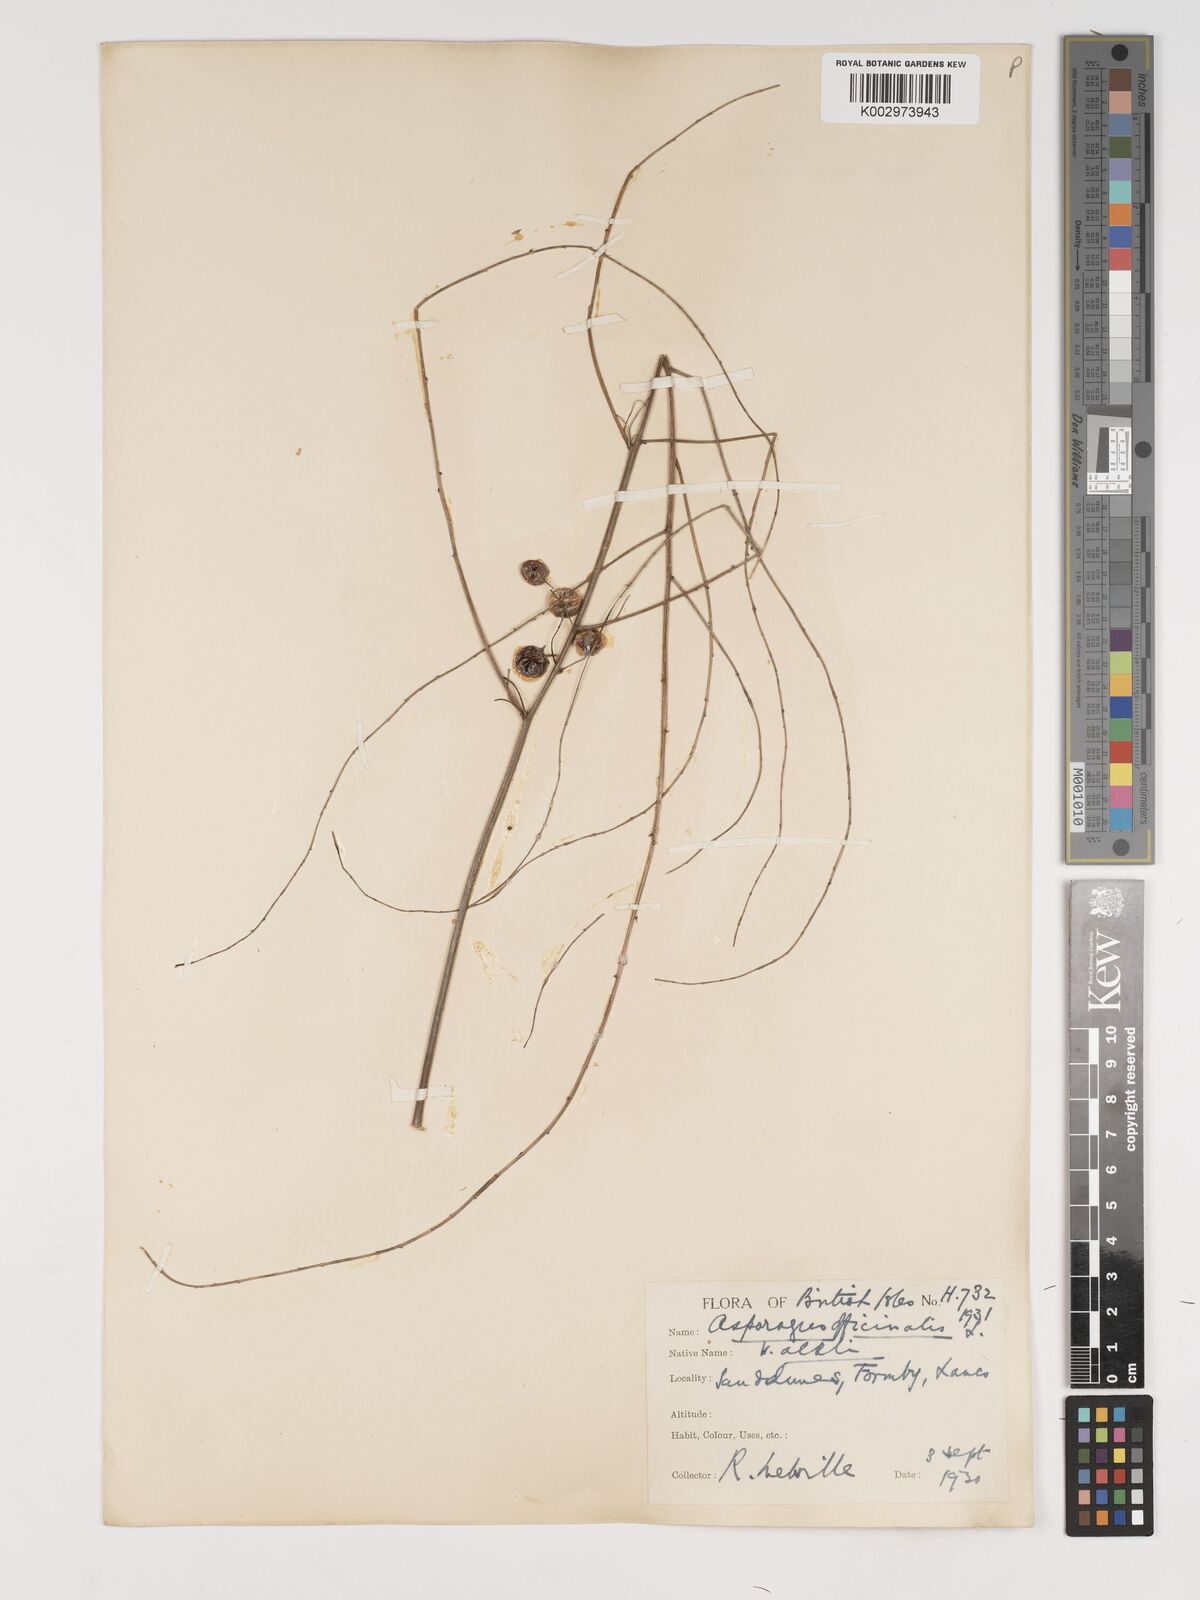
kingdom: Plantae
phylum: Tracheophyta
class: Liliopsida
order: Asparagales
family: Asparagaceae
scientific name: Asparagaceae
